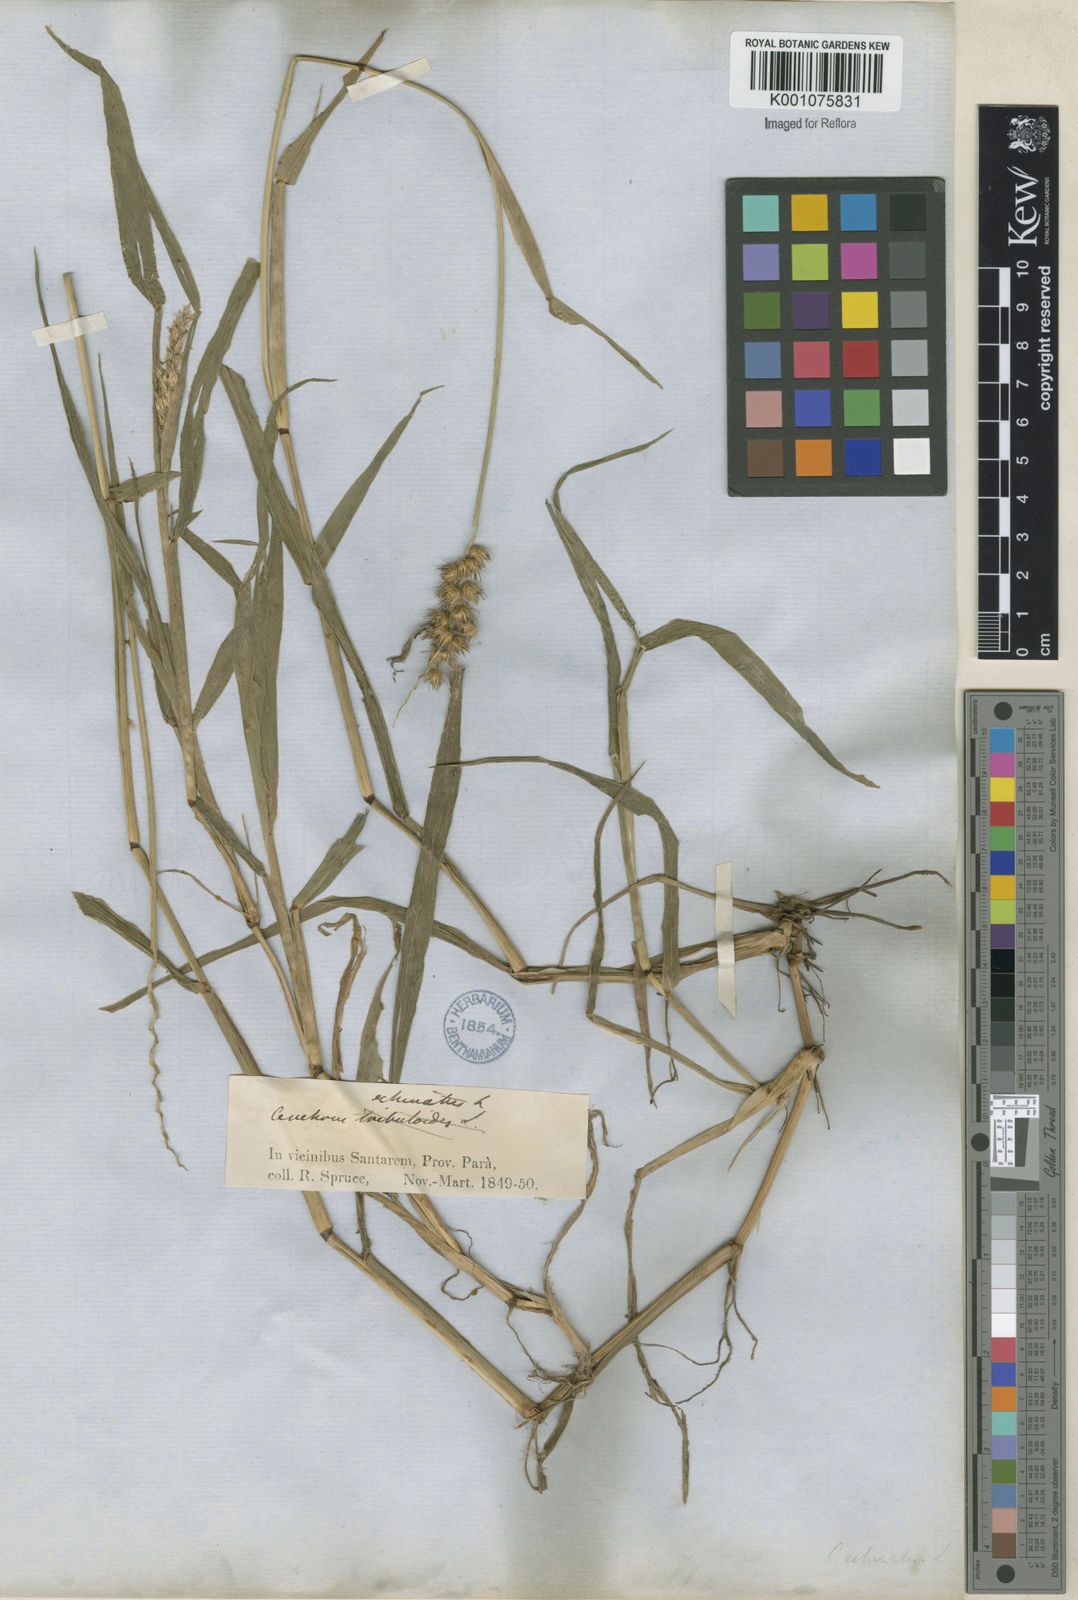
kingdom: Plantae
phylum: Tracheophyta
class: Liliopsida
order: Poales
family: Poaceae
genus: Cenchrus
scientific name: Cenchrus echinatus
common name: Southern sandbur
